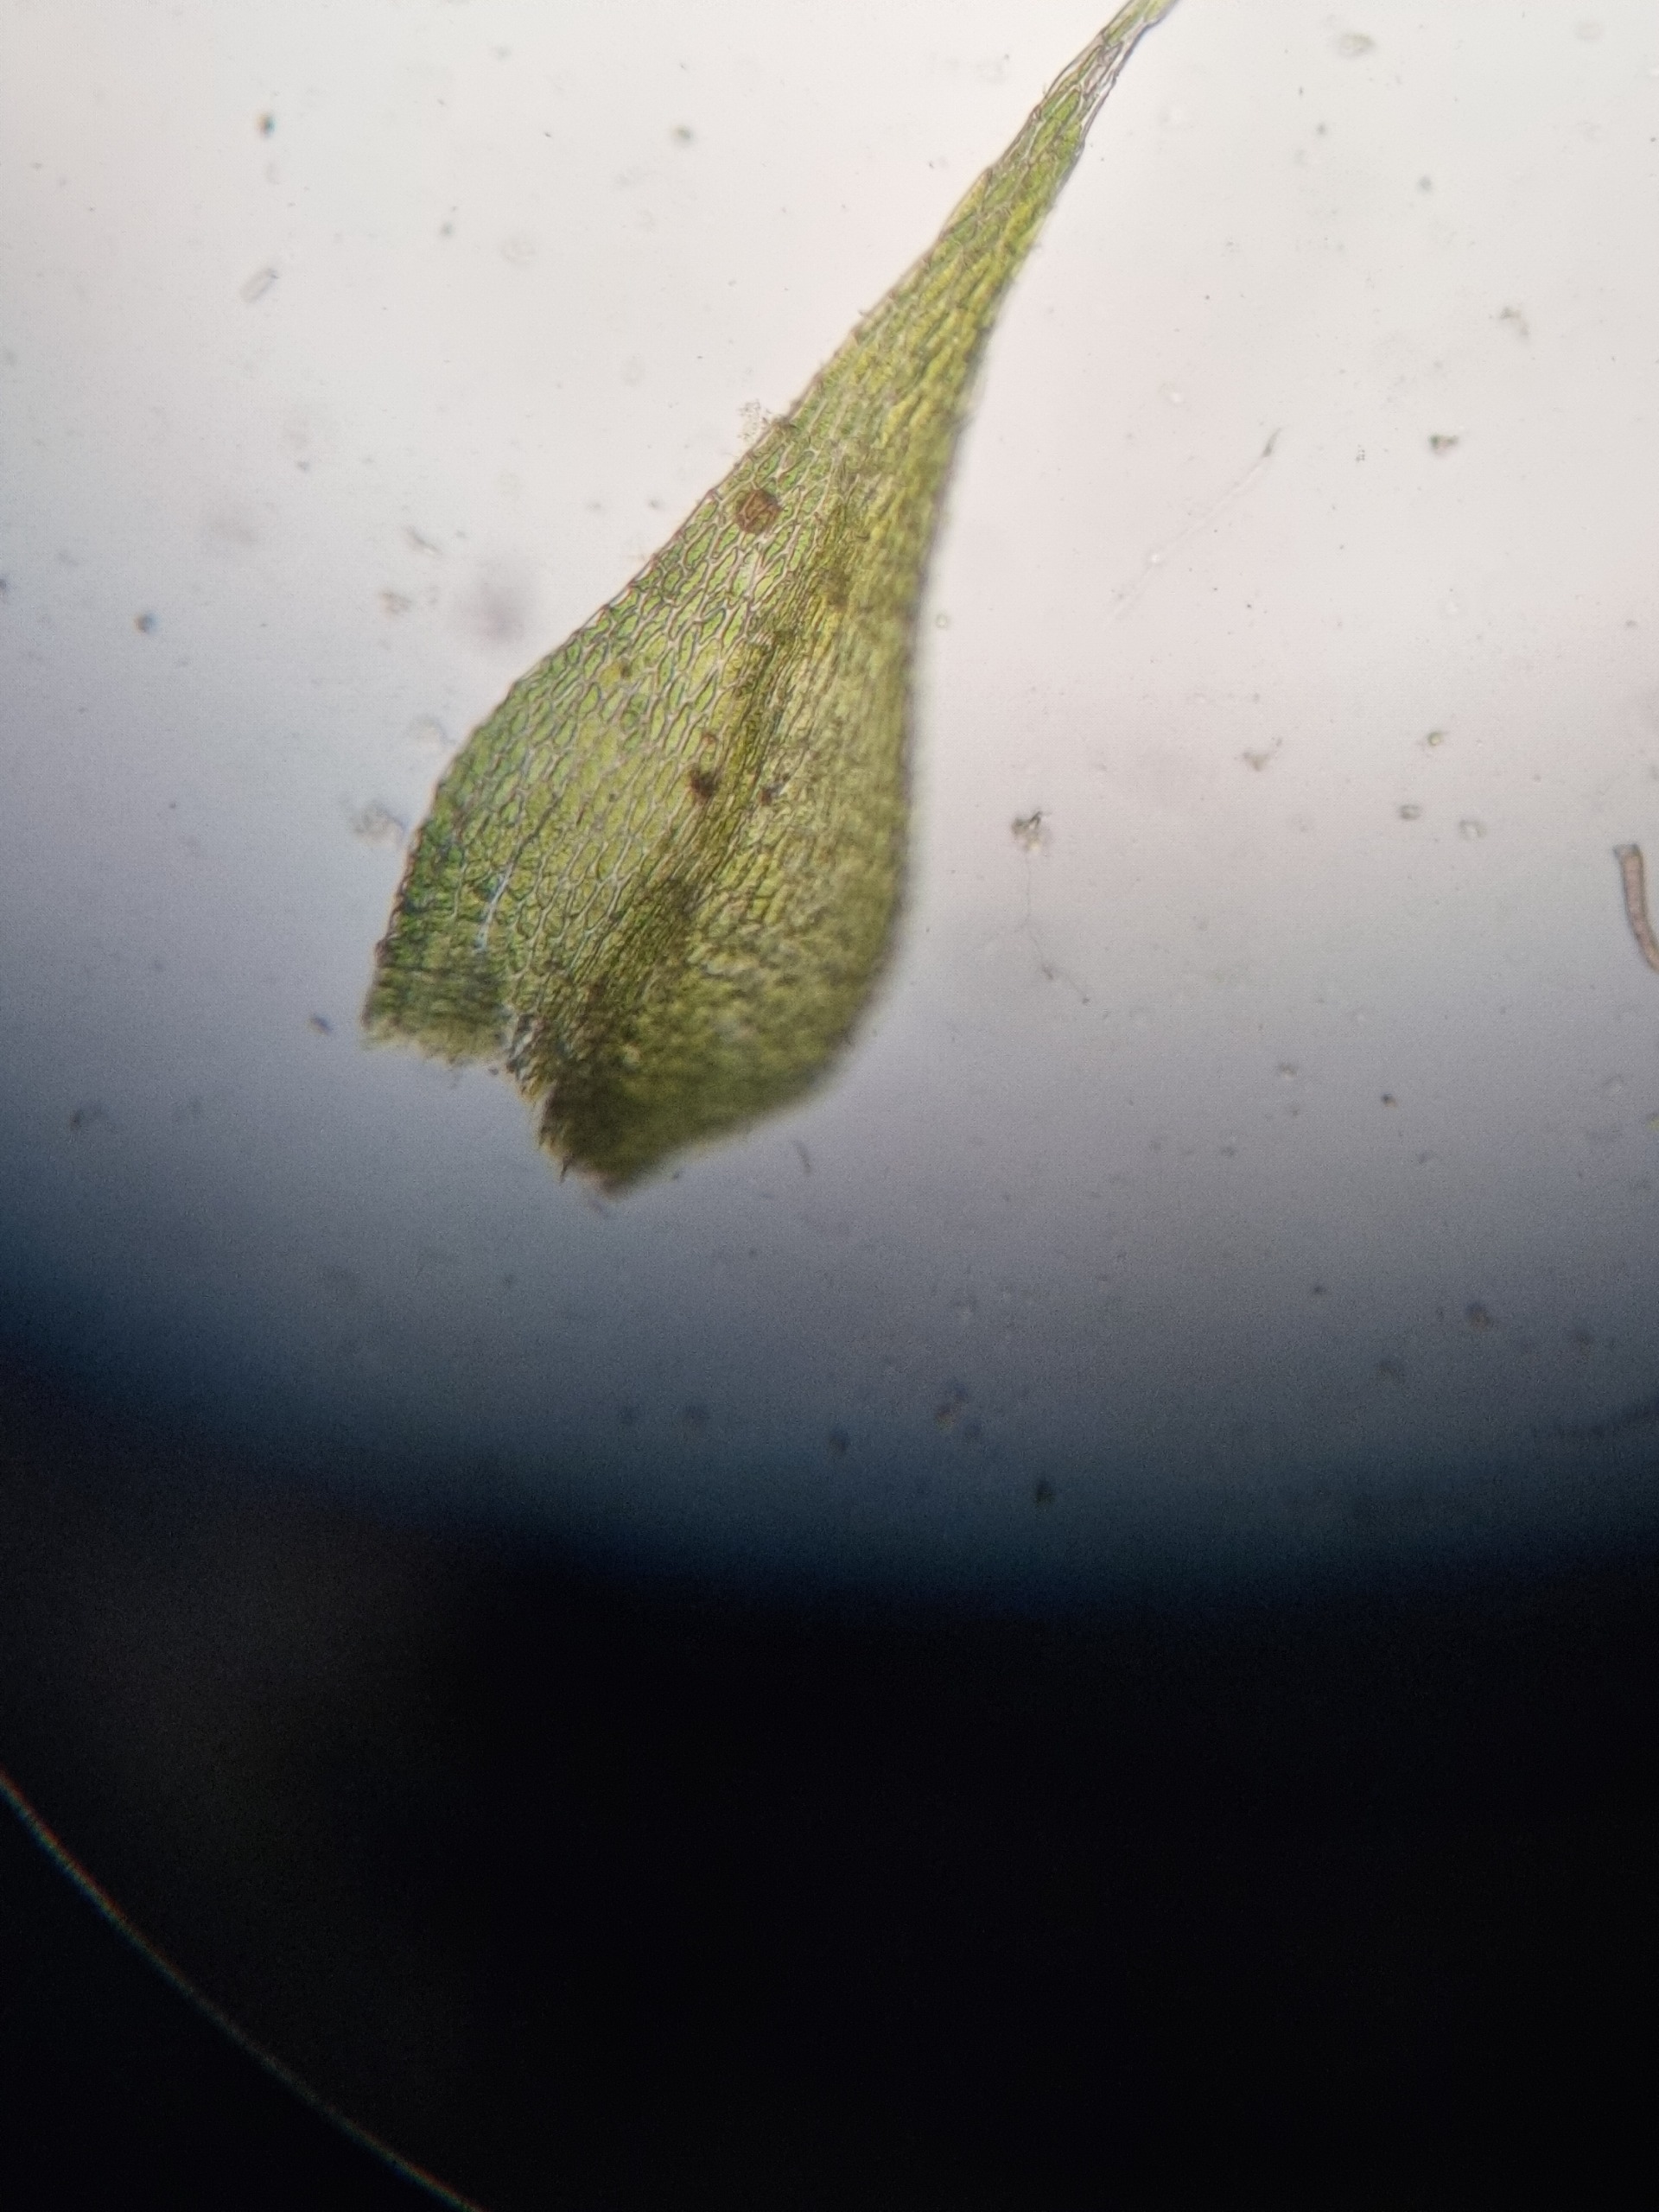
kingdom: Plantae
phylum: Bryophyta
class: Bryopsida
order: Hypnales
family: Amblystegiaceae
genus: Amblystegium
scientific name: Amblystegium serpens
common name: Almindelig krybmos
